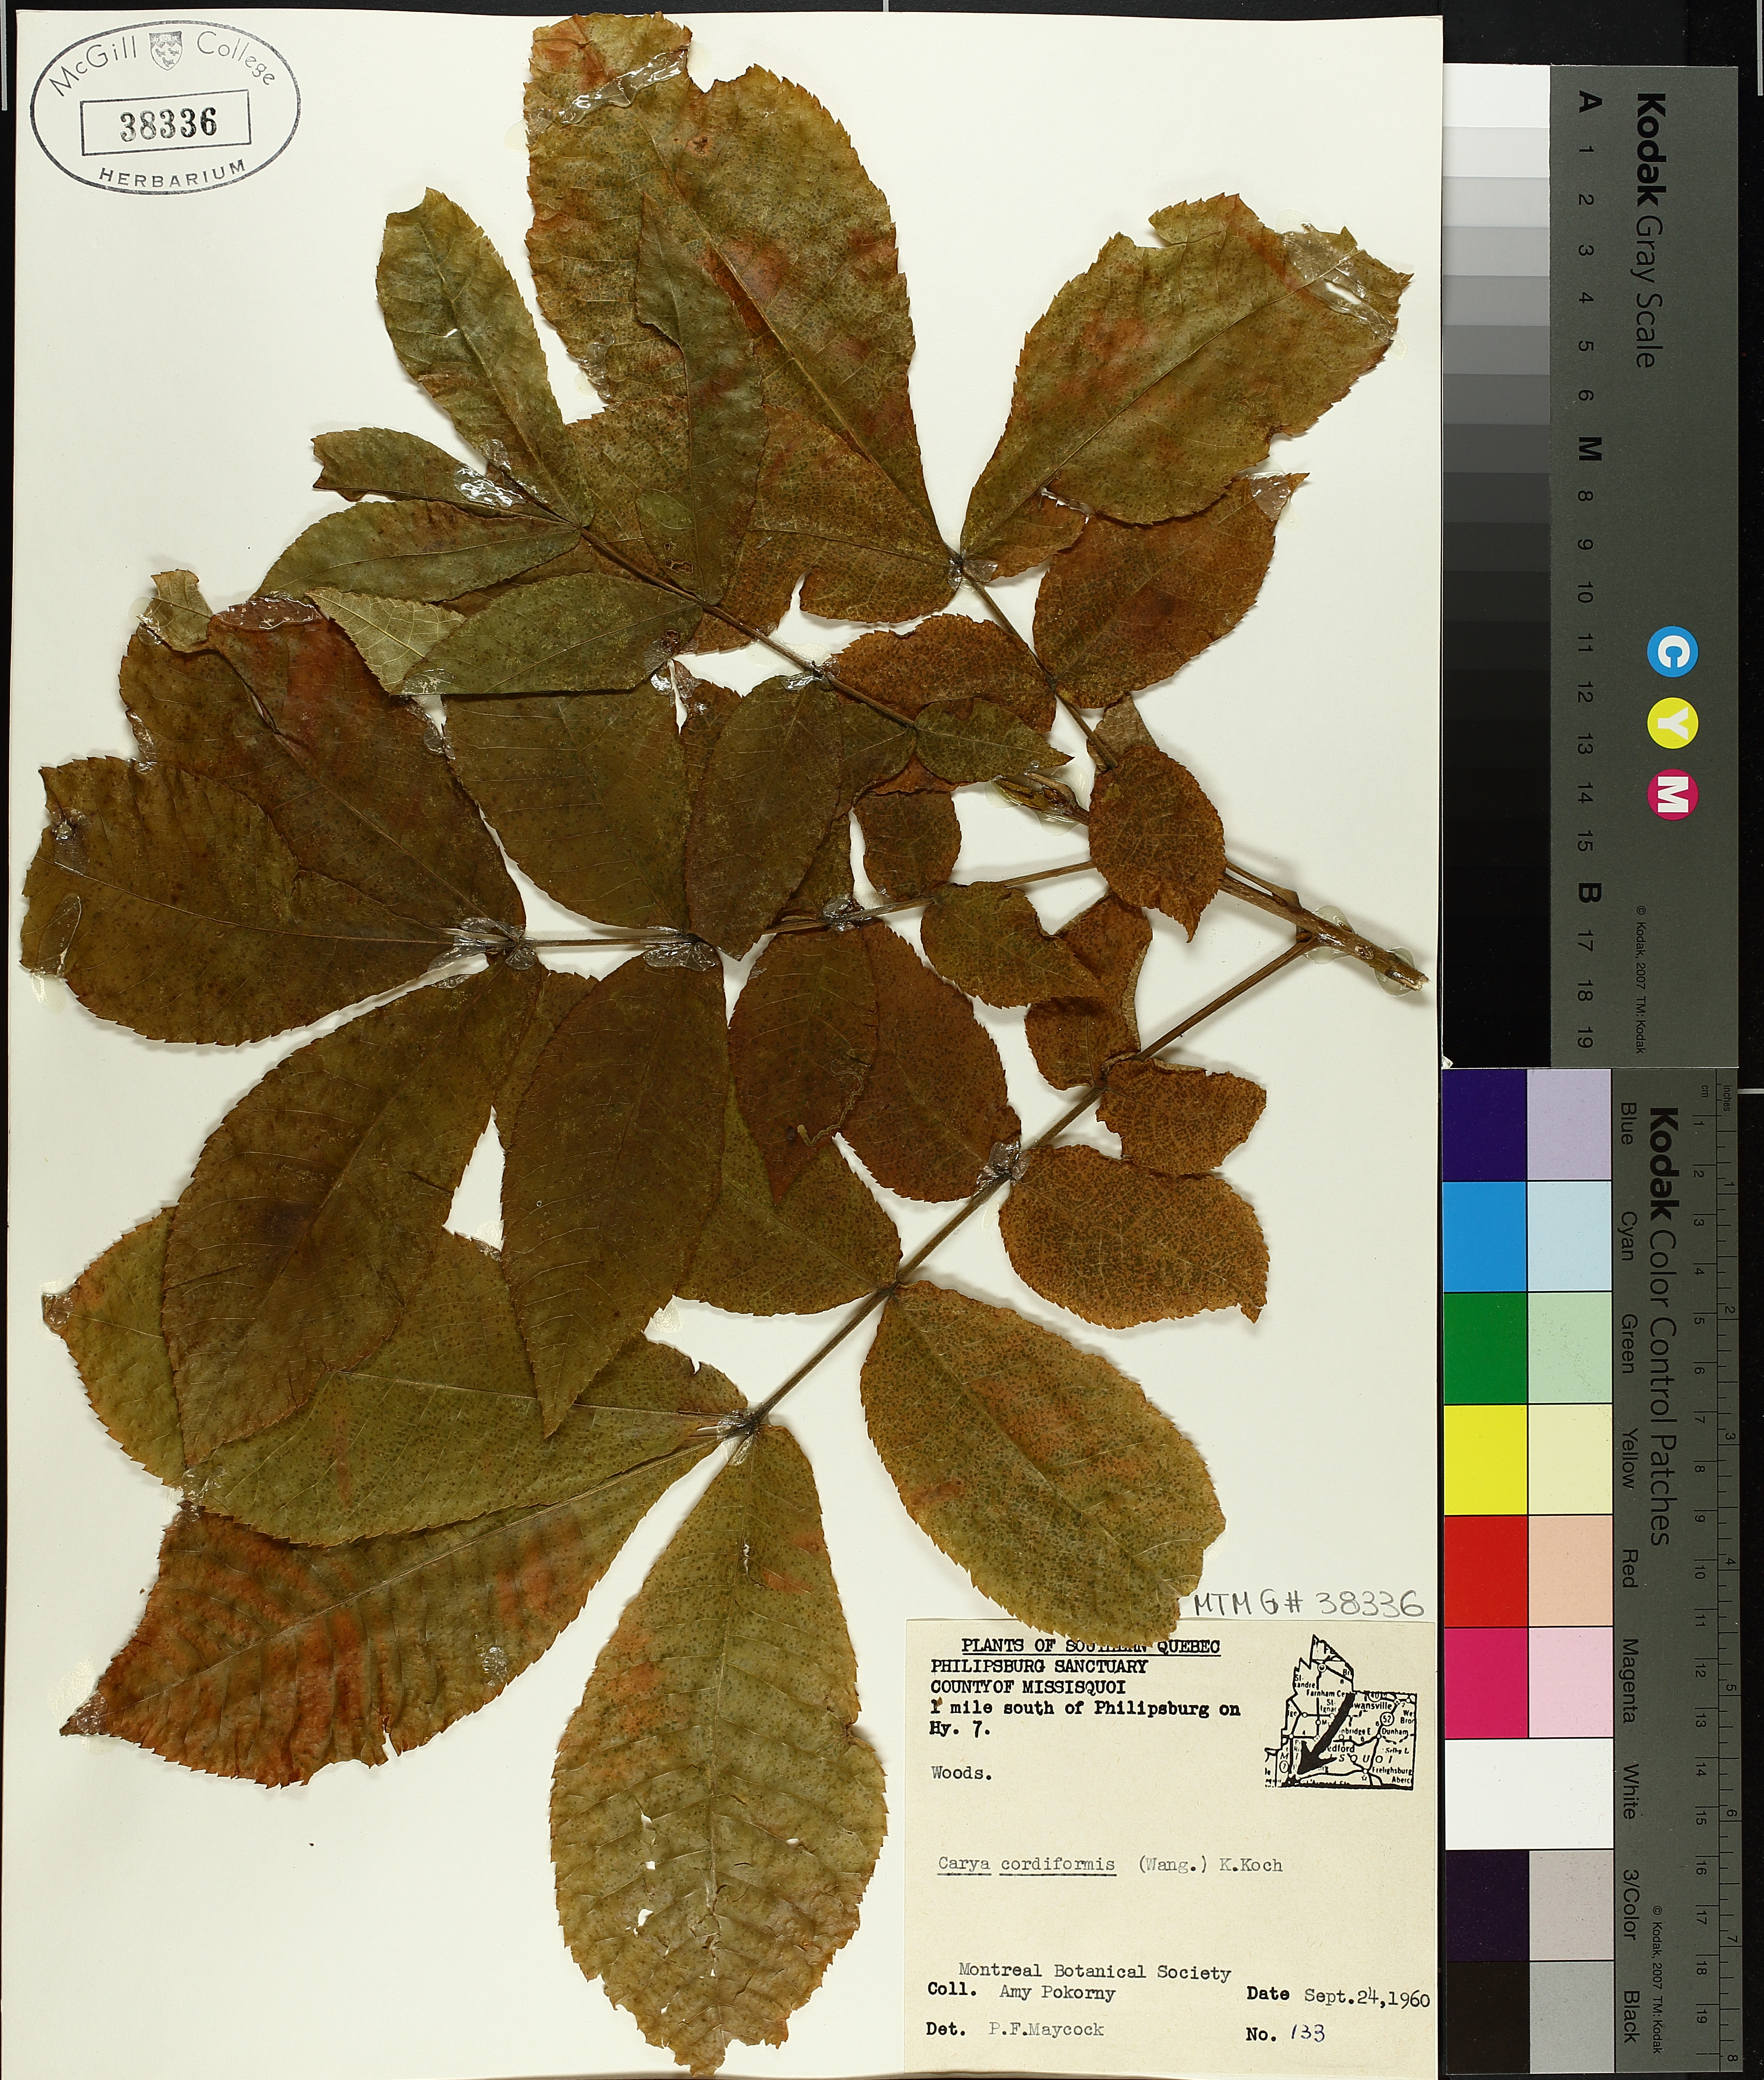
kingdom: Plantae
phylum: Tracheophyta
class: Magnoliopsida
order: Fagales
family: Juglandaceae
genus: Carya
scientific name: Carya cordiformis
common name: Bitternut hickory
